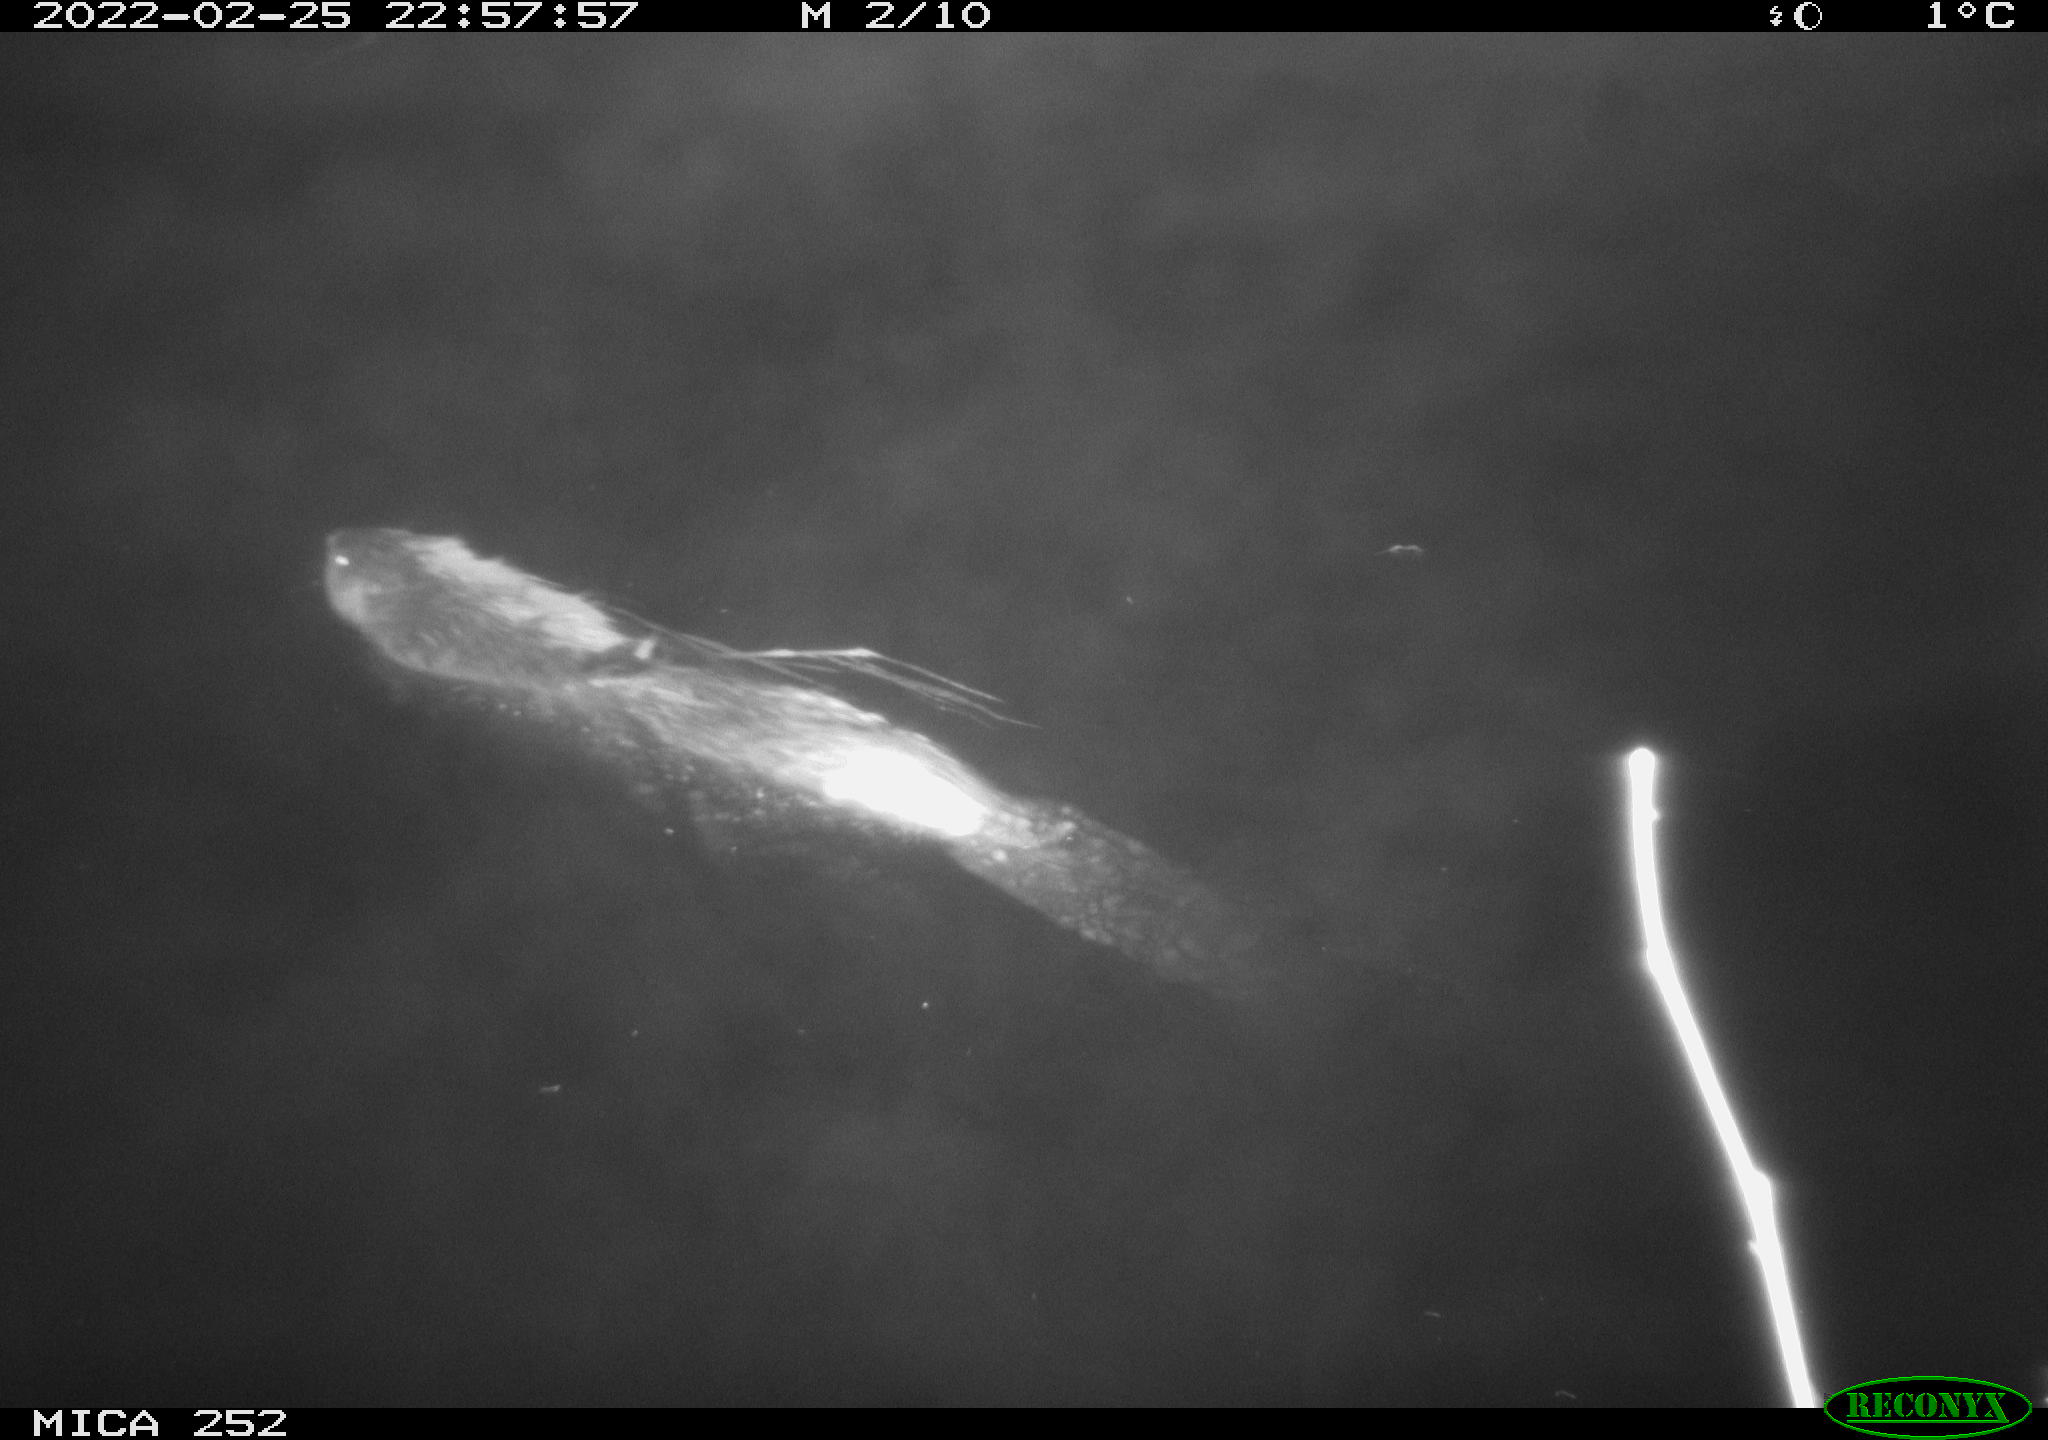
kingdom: Animalia
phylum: Chordata
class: Mammalia
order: Rodentia
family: Castoridae
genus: Castor
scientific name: Castor fiber
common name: Eurasian beaver
